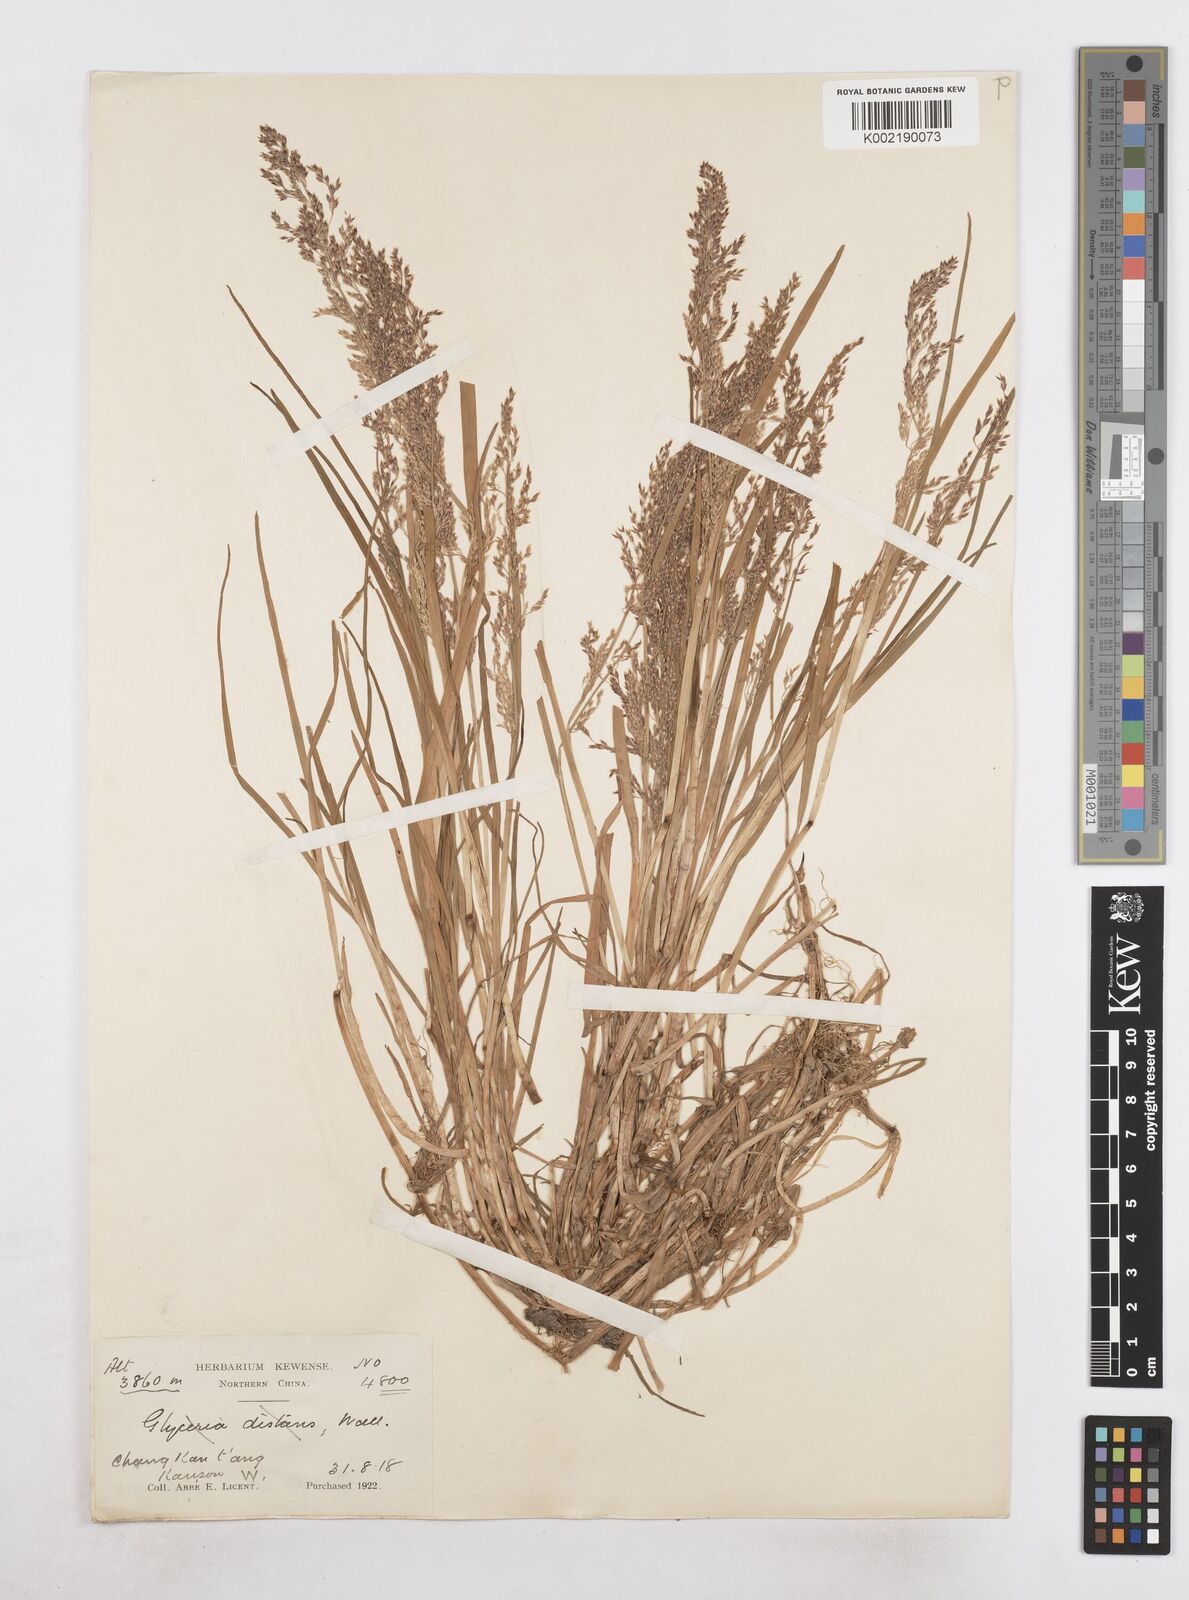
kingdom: Plantae
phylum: Tracheophyta
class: Liliopsida
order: Poales
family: Poaceae
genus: Catabrosa
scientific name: Catabrosa aquatica
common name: Whorl-grass
